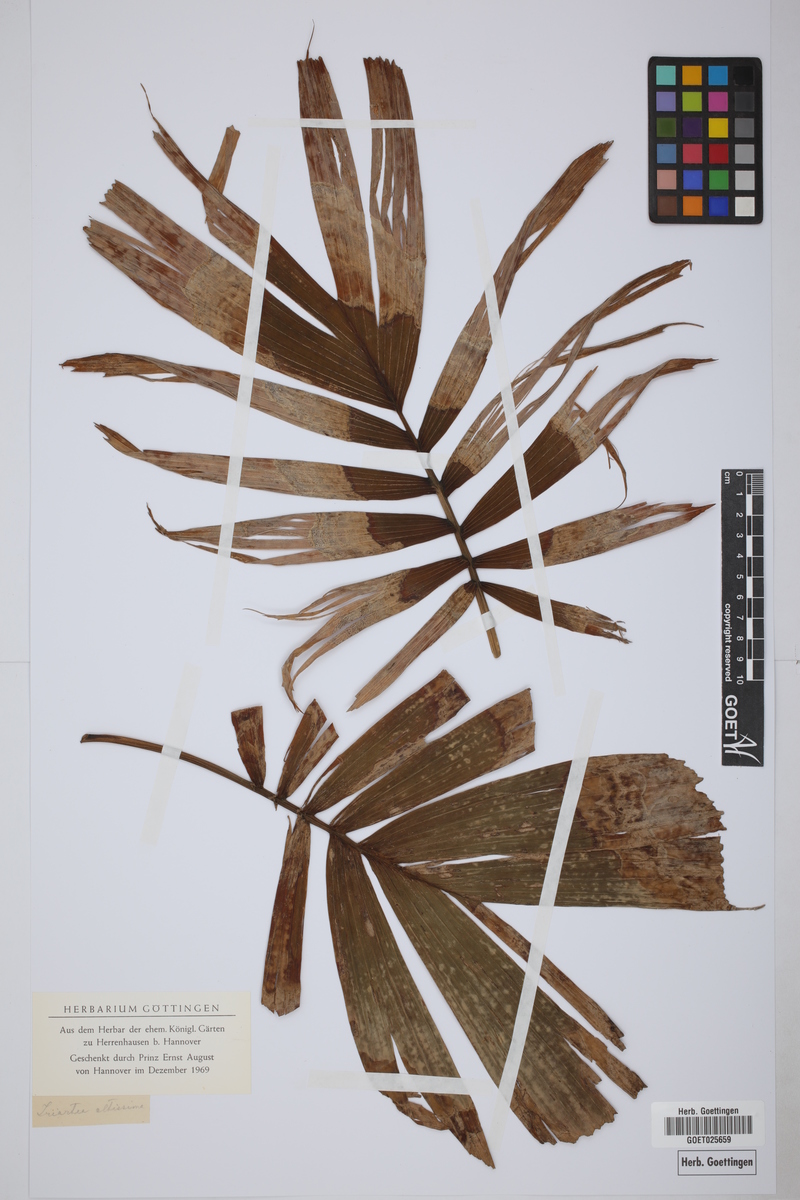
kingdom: Plantae
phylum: Tracheophyta
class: Liliopsida
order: Arecales
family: Arecaceae
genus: Dictyocaryum
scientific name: Dictyocaryum fuscum
